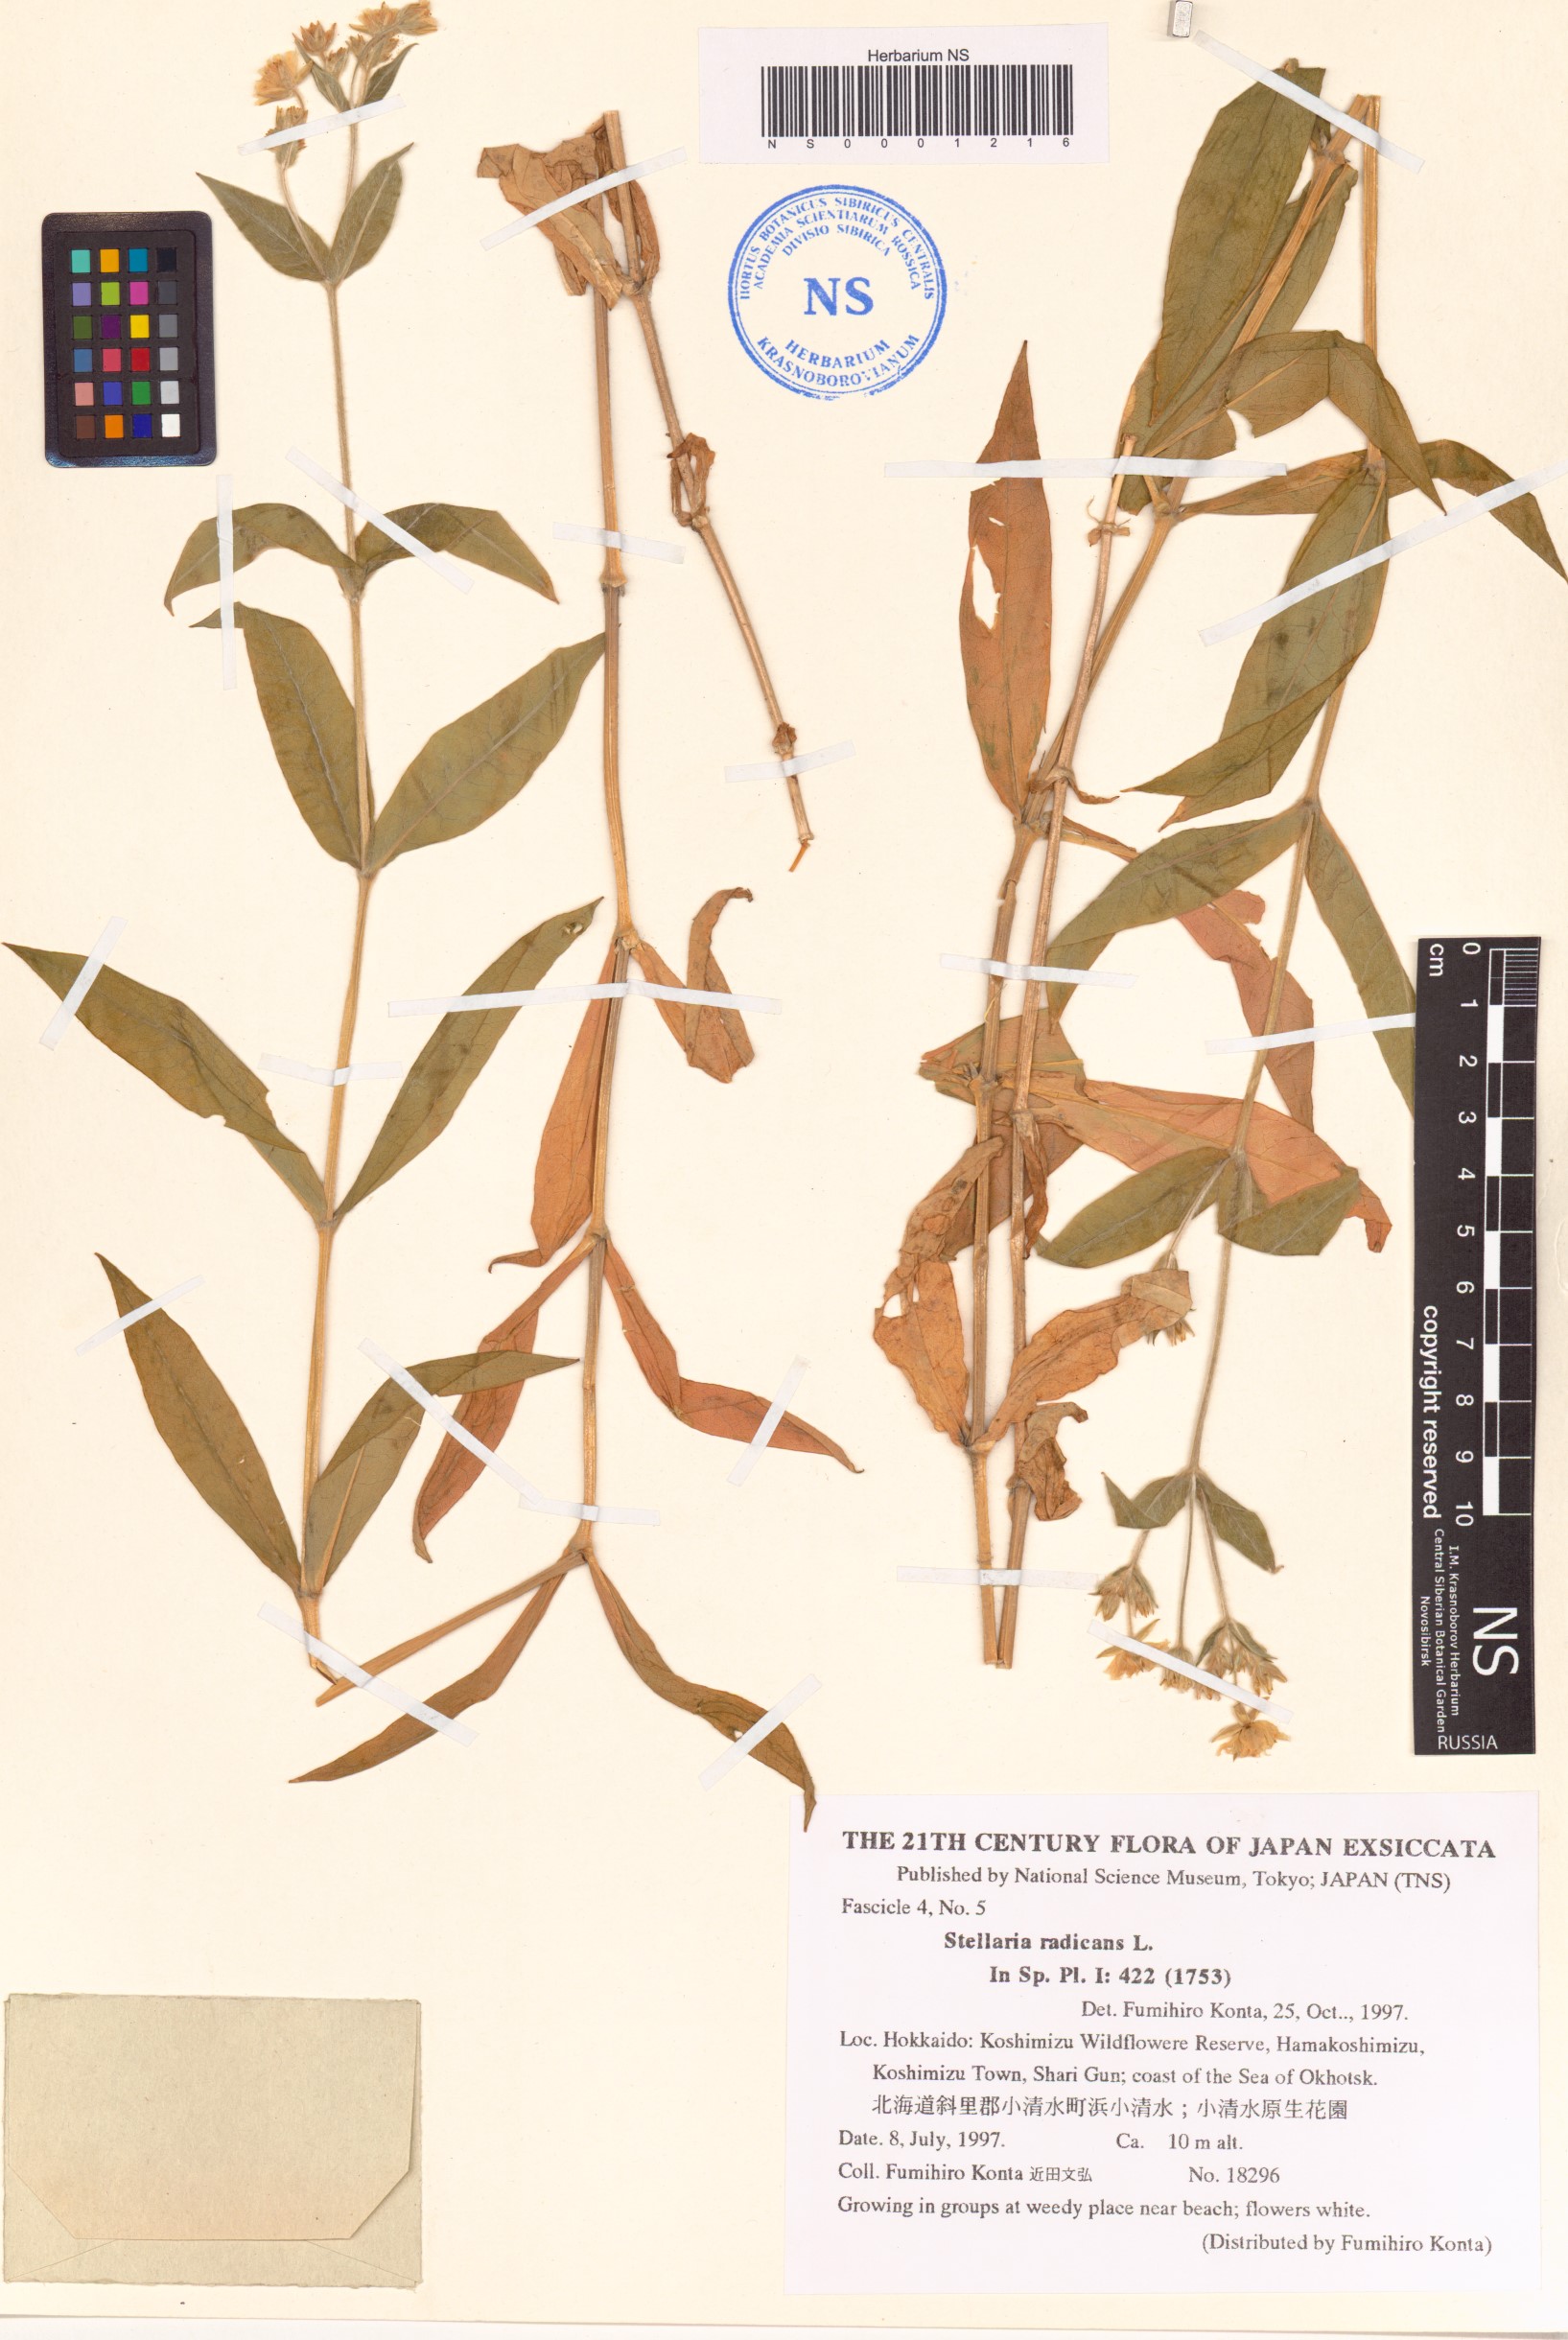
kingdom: Plantae
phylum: Tracheophyta
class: Magnoliopsida
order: Caryophyllales
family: Caryophyllaceae
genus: Stellaria
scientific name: Stellaria radians
